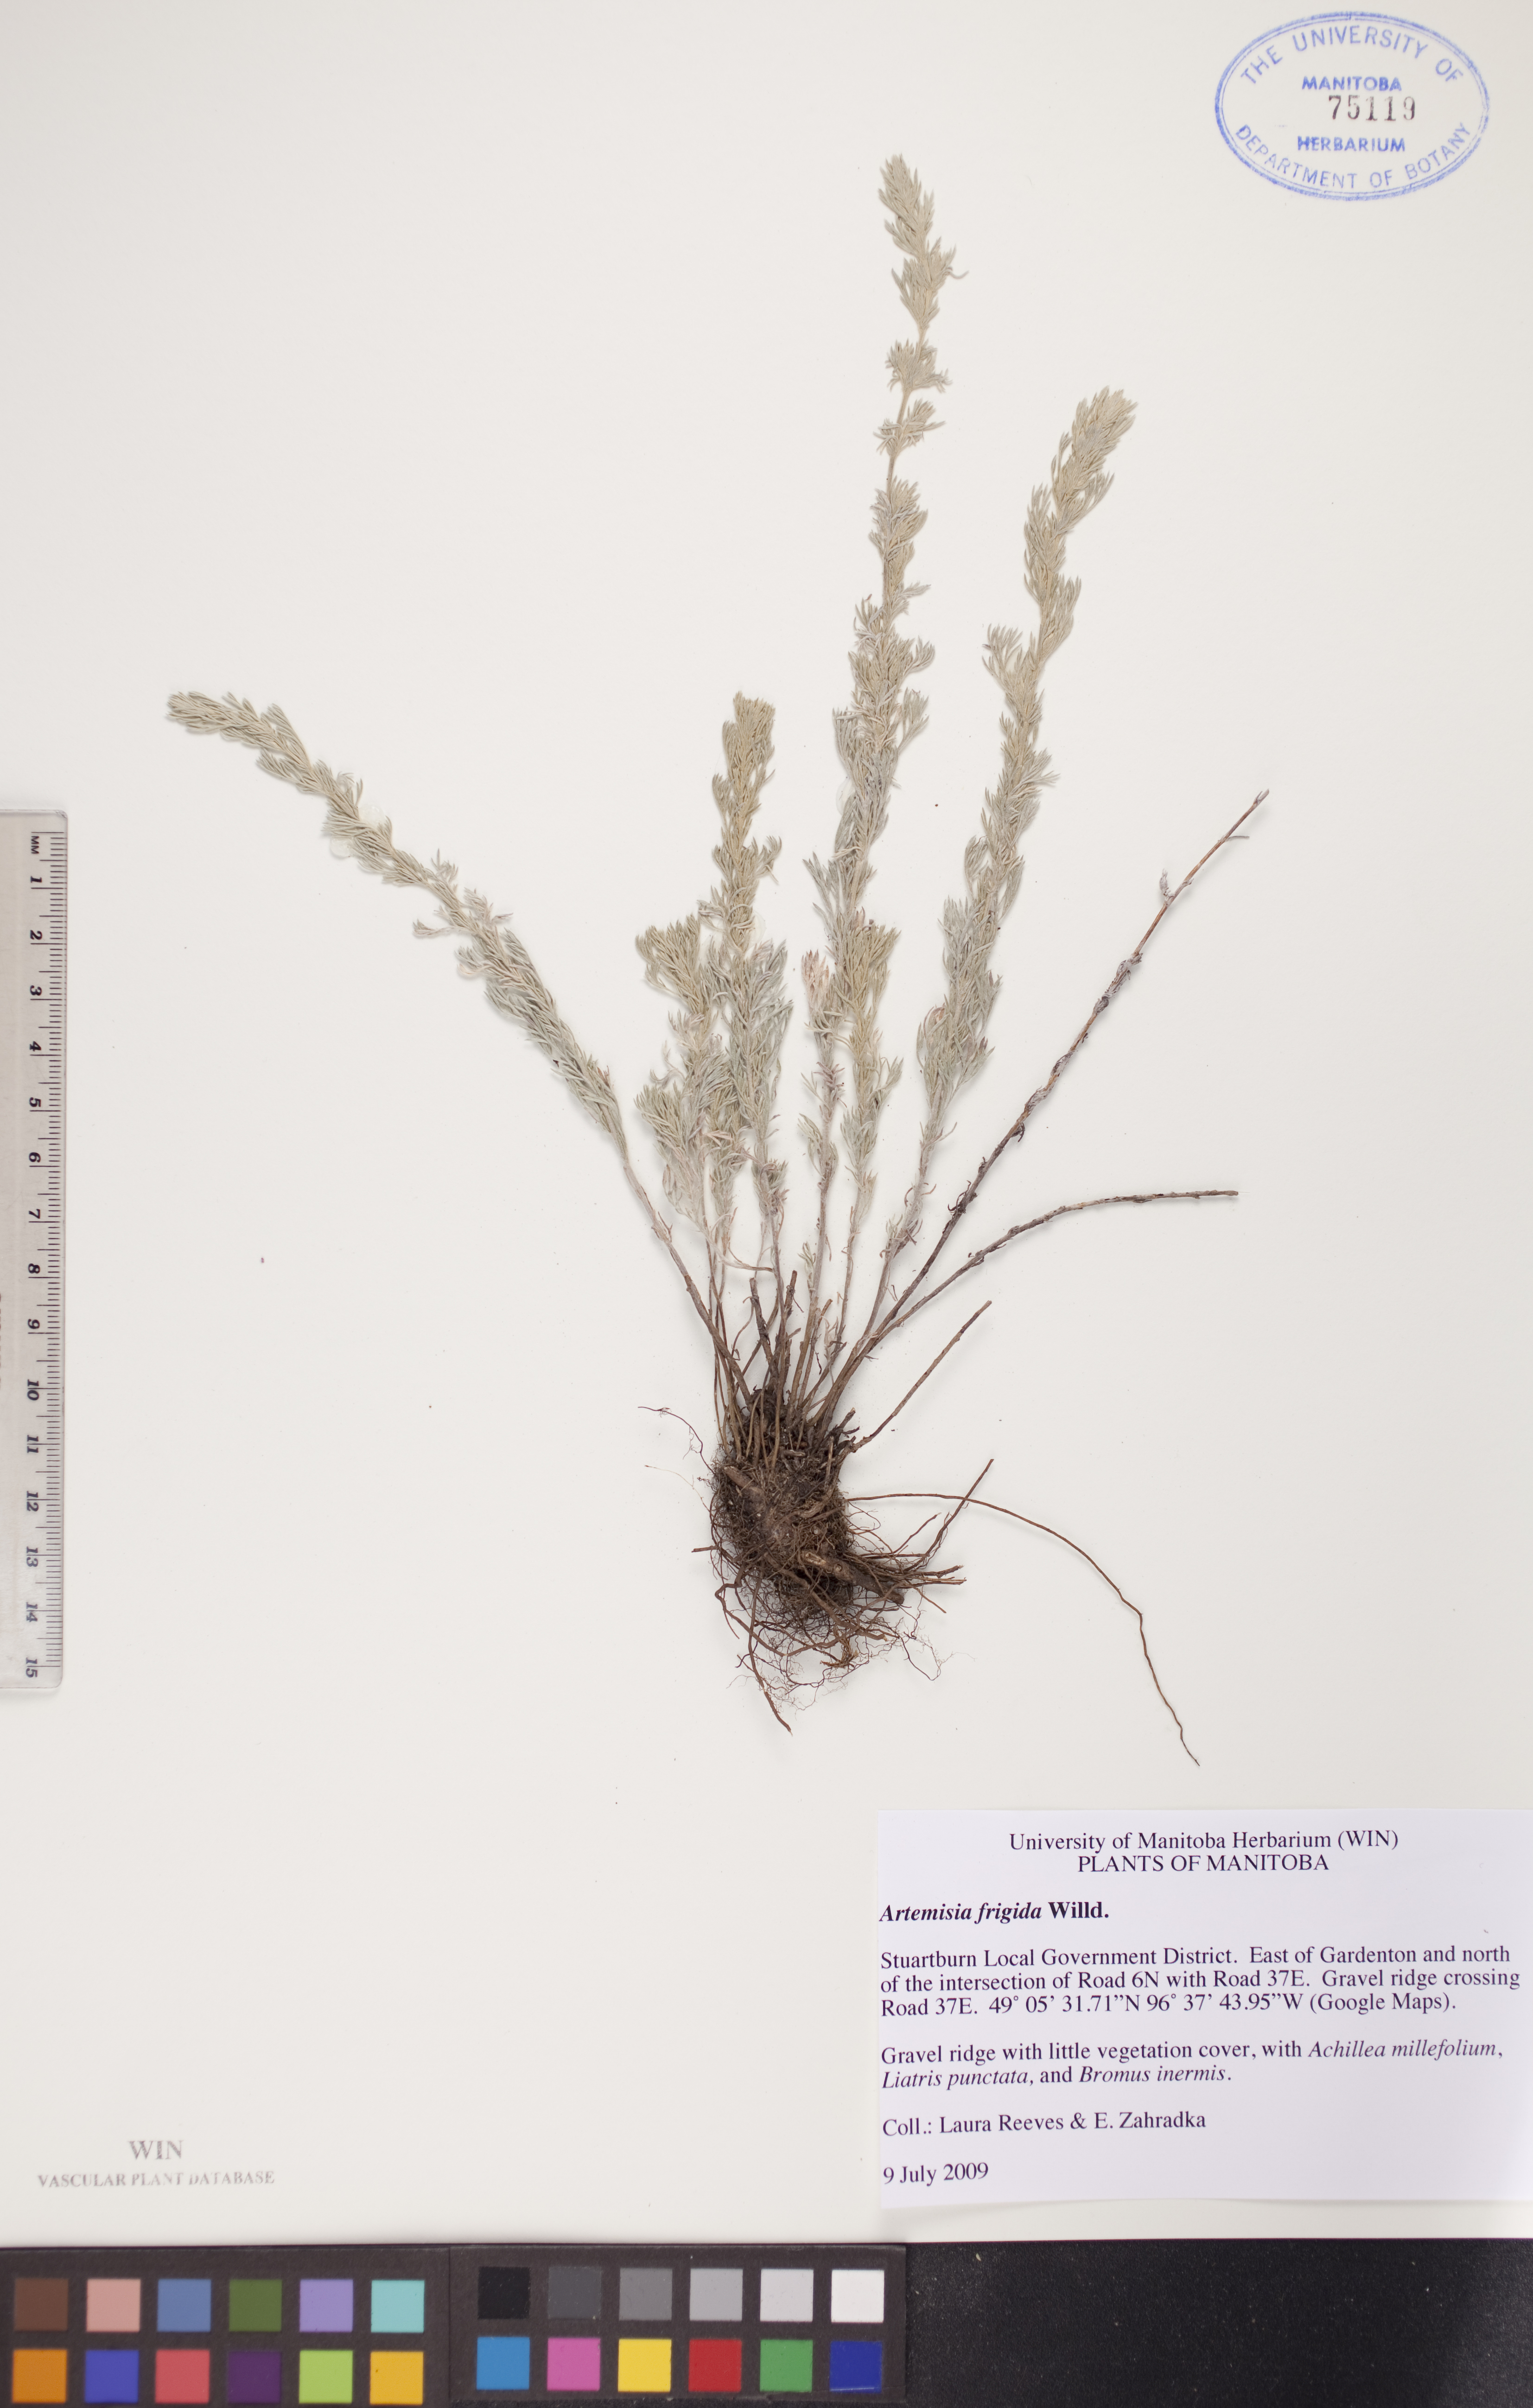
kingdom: Plantae
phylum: Tracheophyta
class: Magnoliopsida
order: Asterales
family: Asteraceae
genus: Artemisia
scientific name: Artemisia frigida
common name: Prairie sagewort
